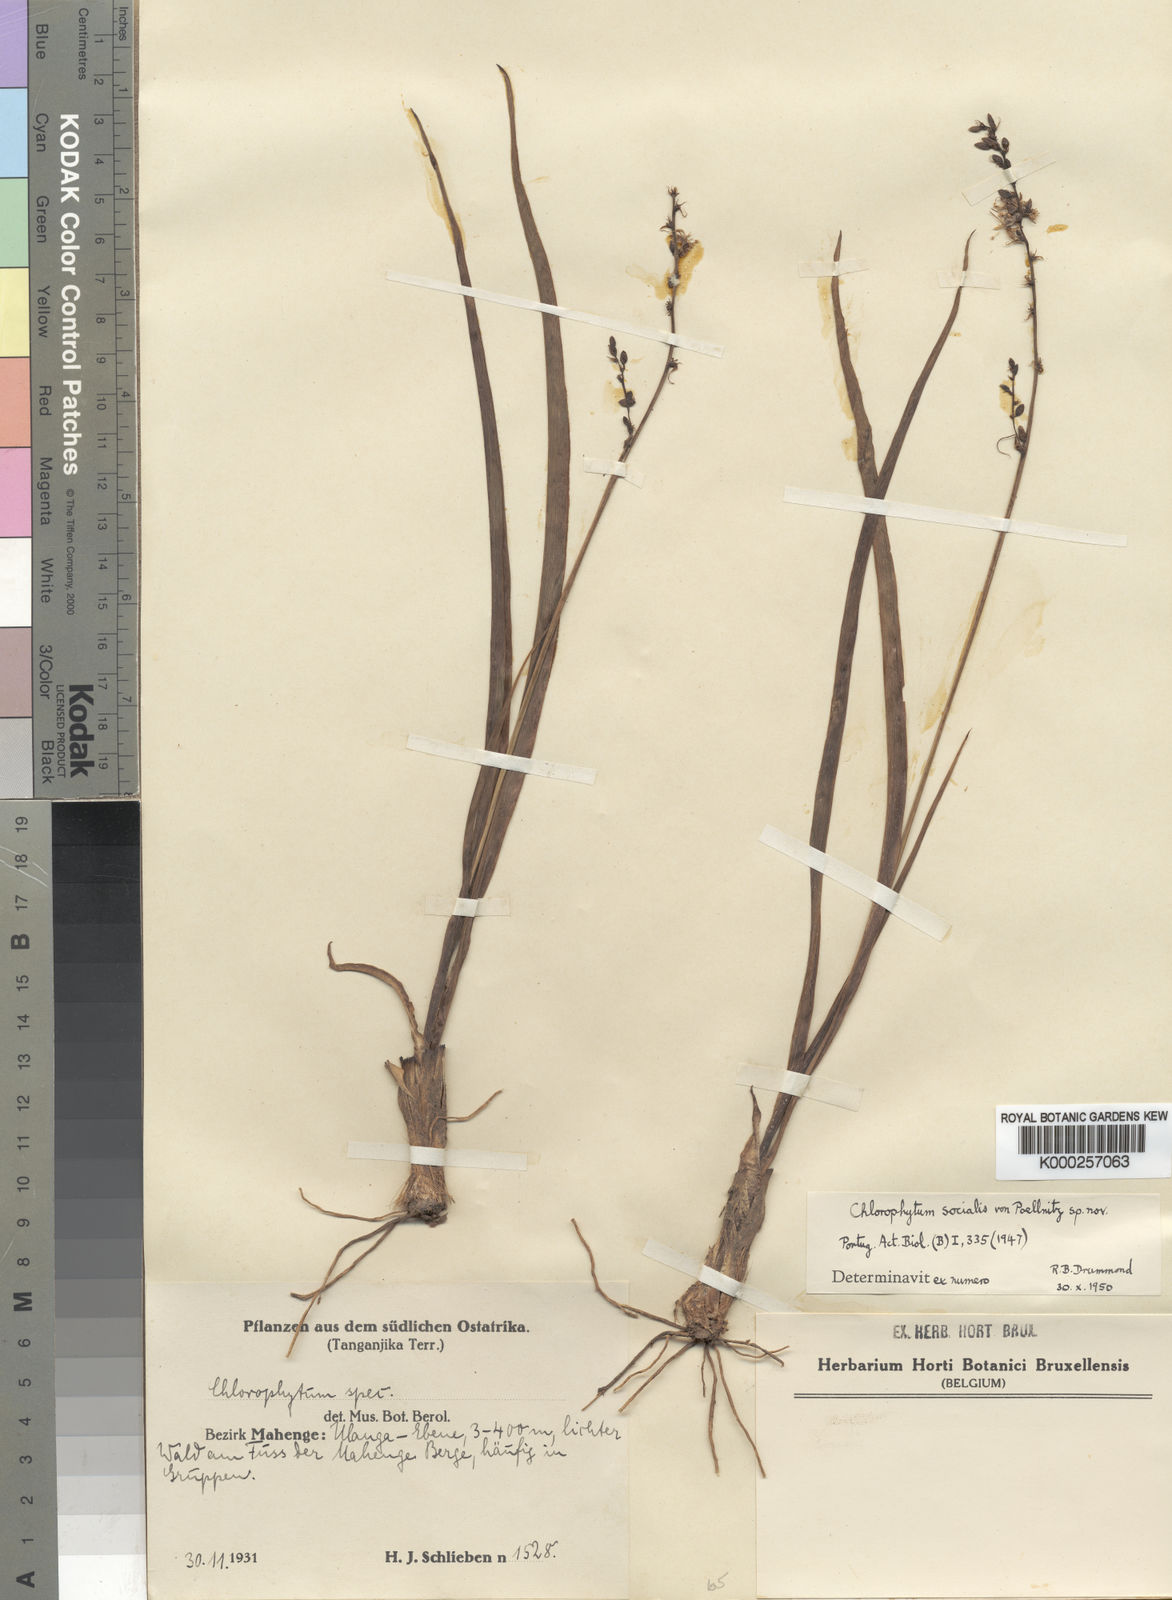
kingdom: Plantae
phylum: Tracheophyta
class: Liliopsida
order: Asparagales
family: Asparagaceae
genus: Chlorophytum
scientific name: Chlorophytum gallabatense
